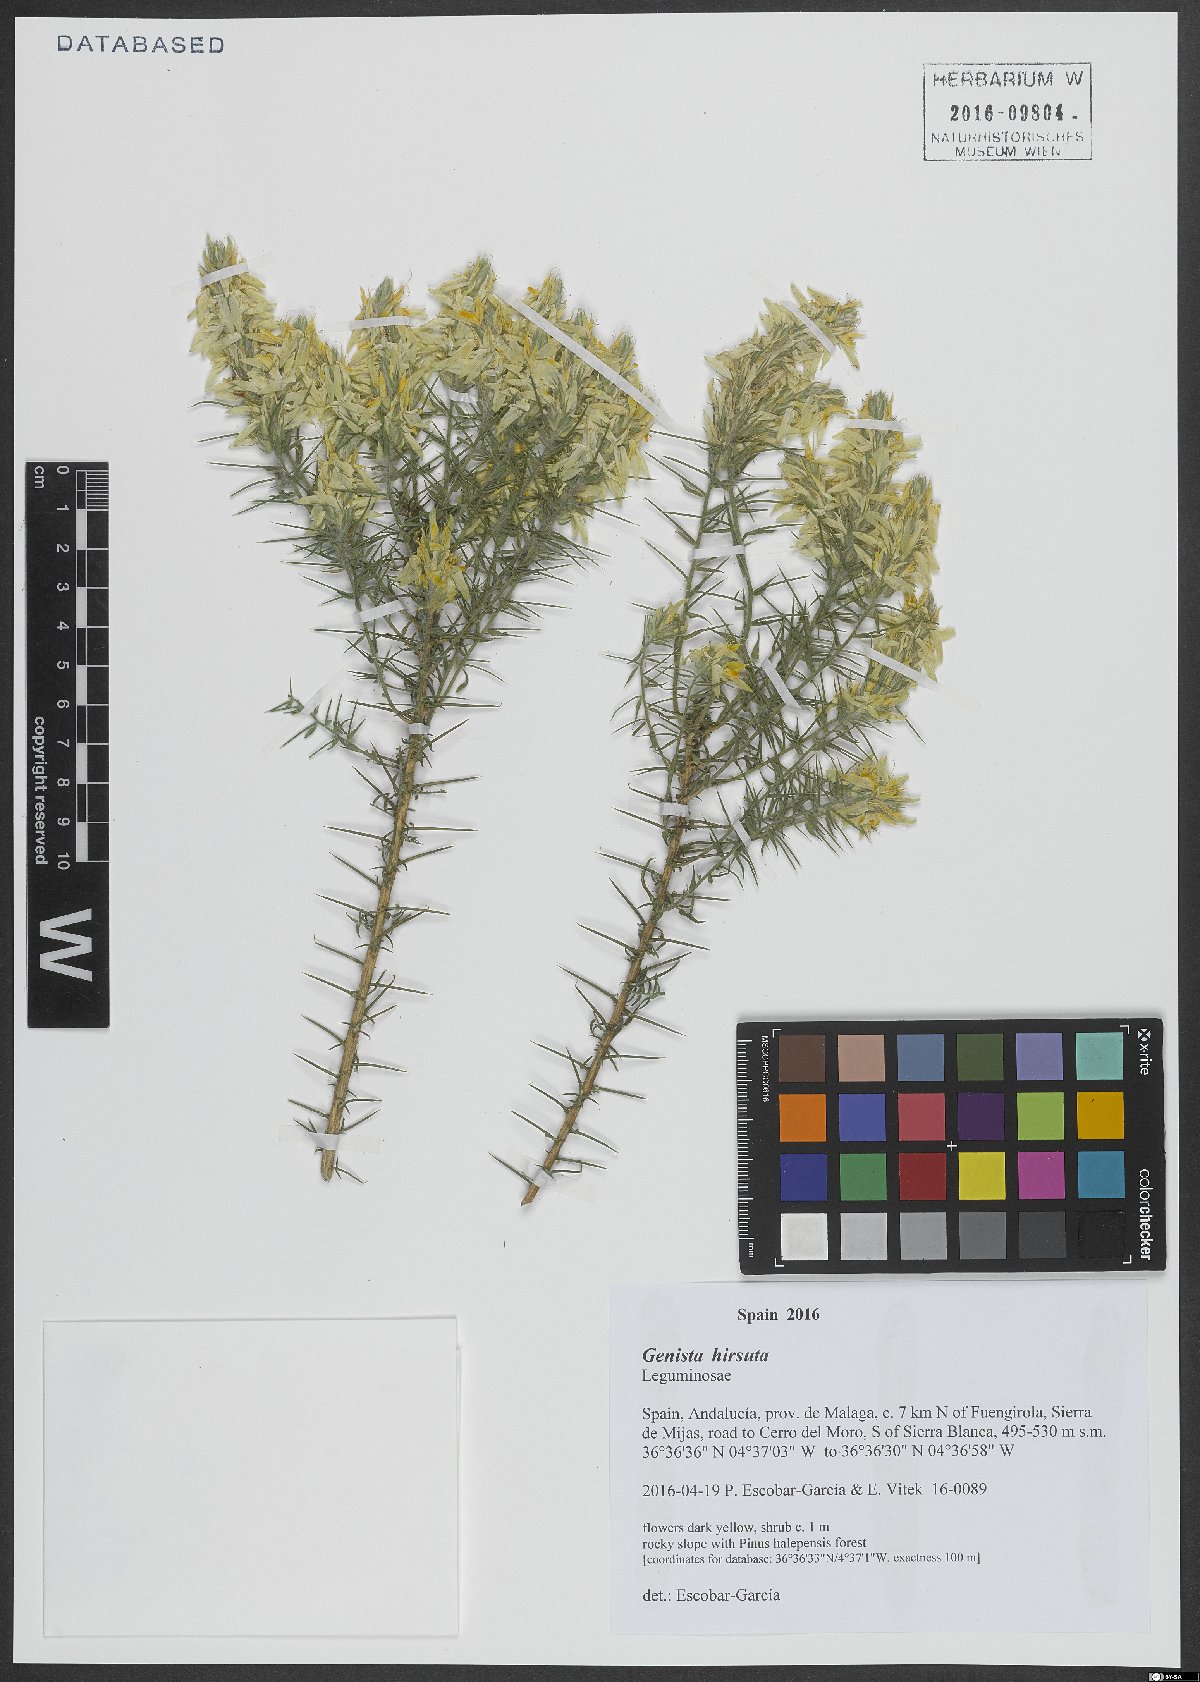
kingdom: Plantae
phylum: Tracheophyta
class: Magnoliopsida
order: Fabales
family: Fabaceae
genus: Genista
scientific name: Genista hirsuta
